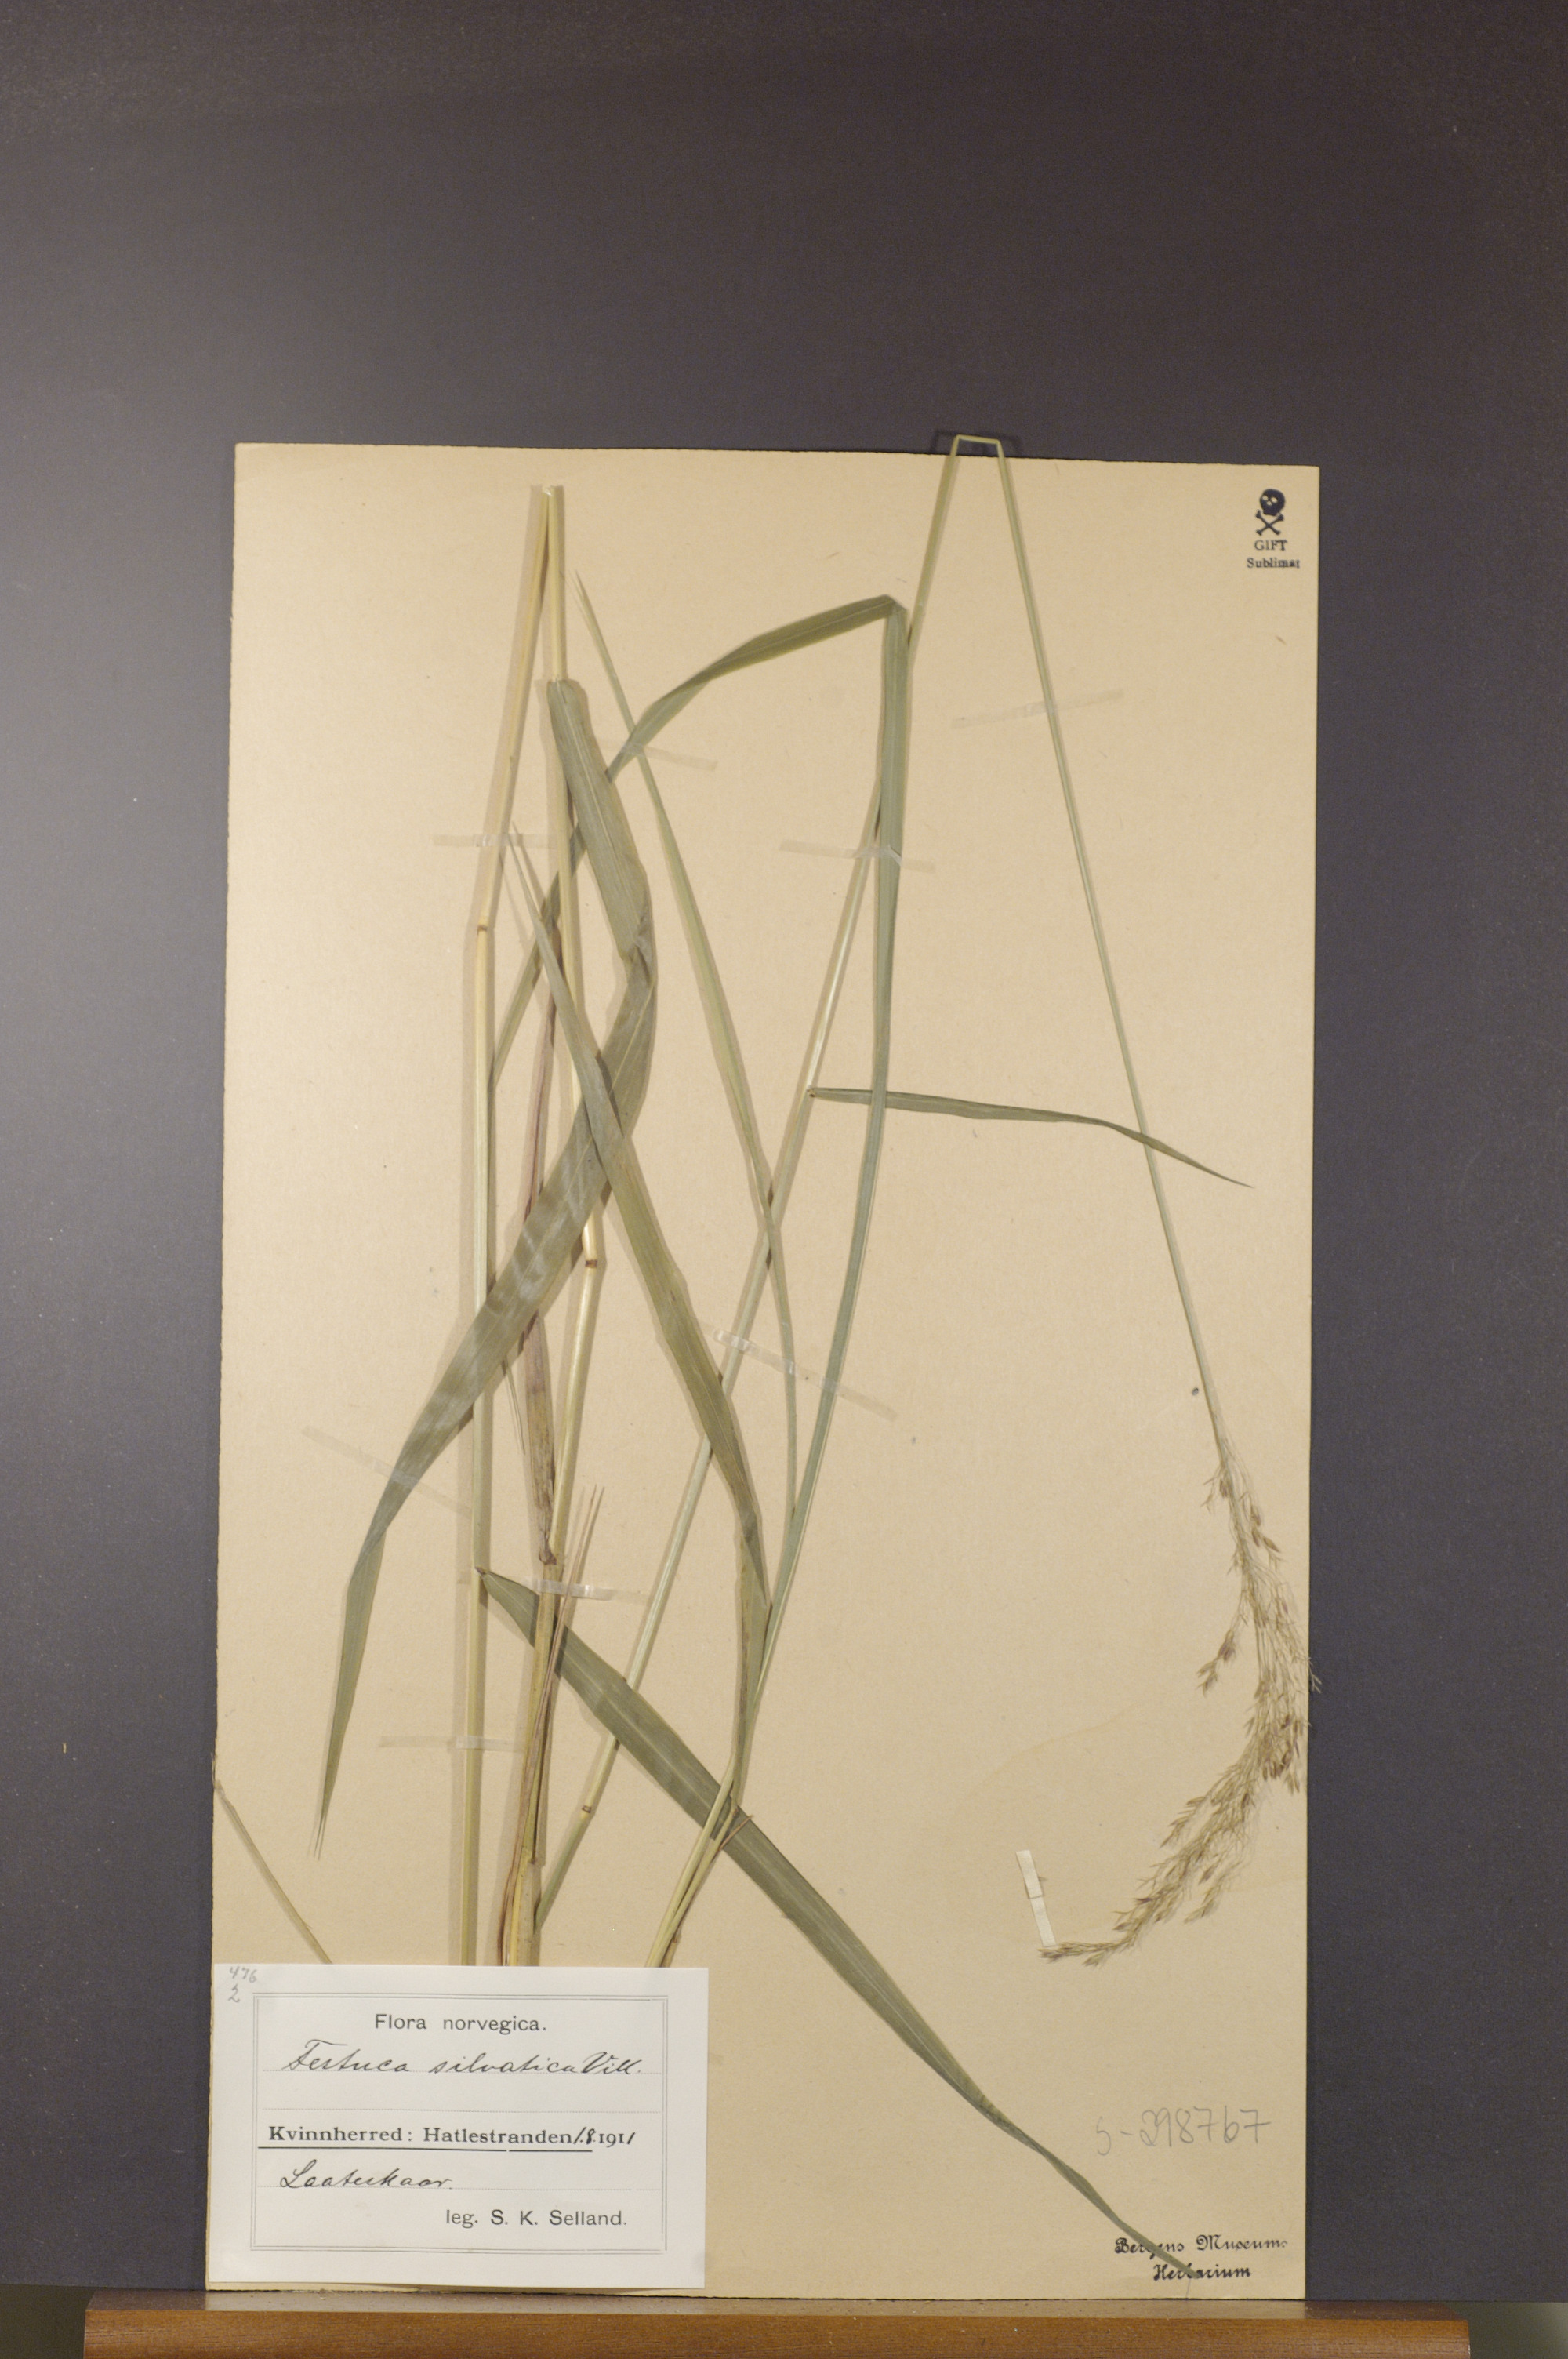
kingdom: Plantae
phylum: Tracheophyta
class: Liliopsida
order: Poales
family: Poaceae
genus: Festuca
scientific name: Festuca altissima
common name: Wood fescue
